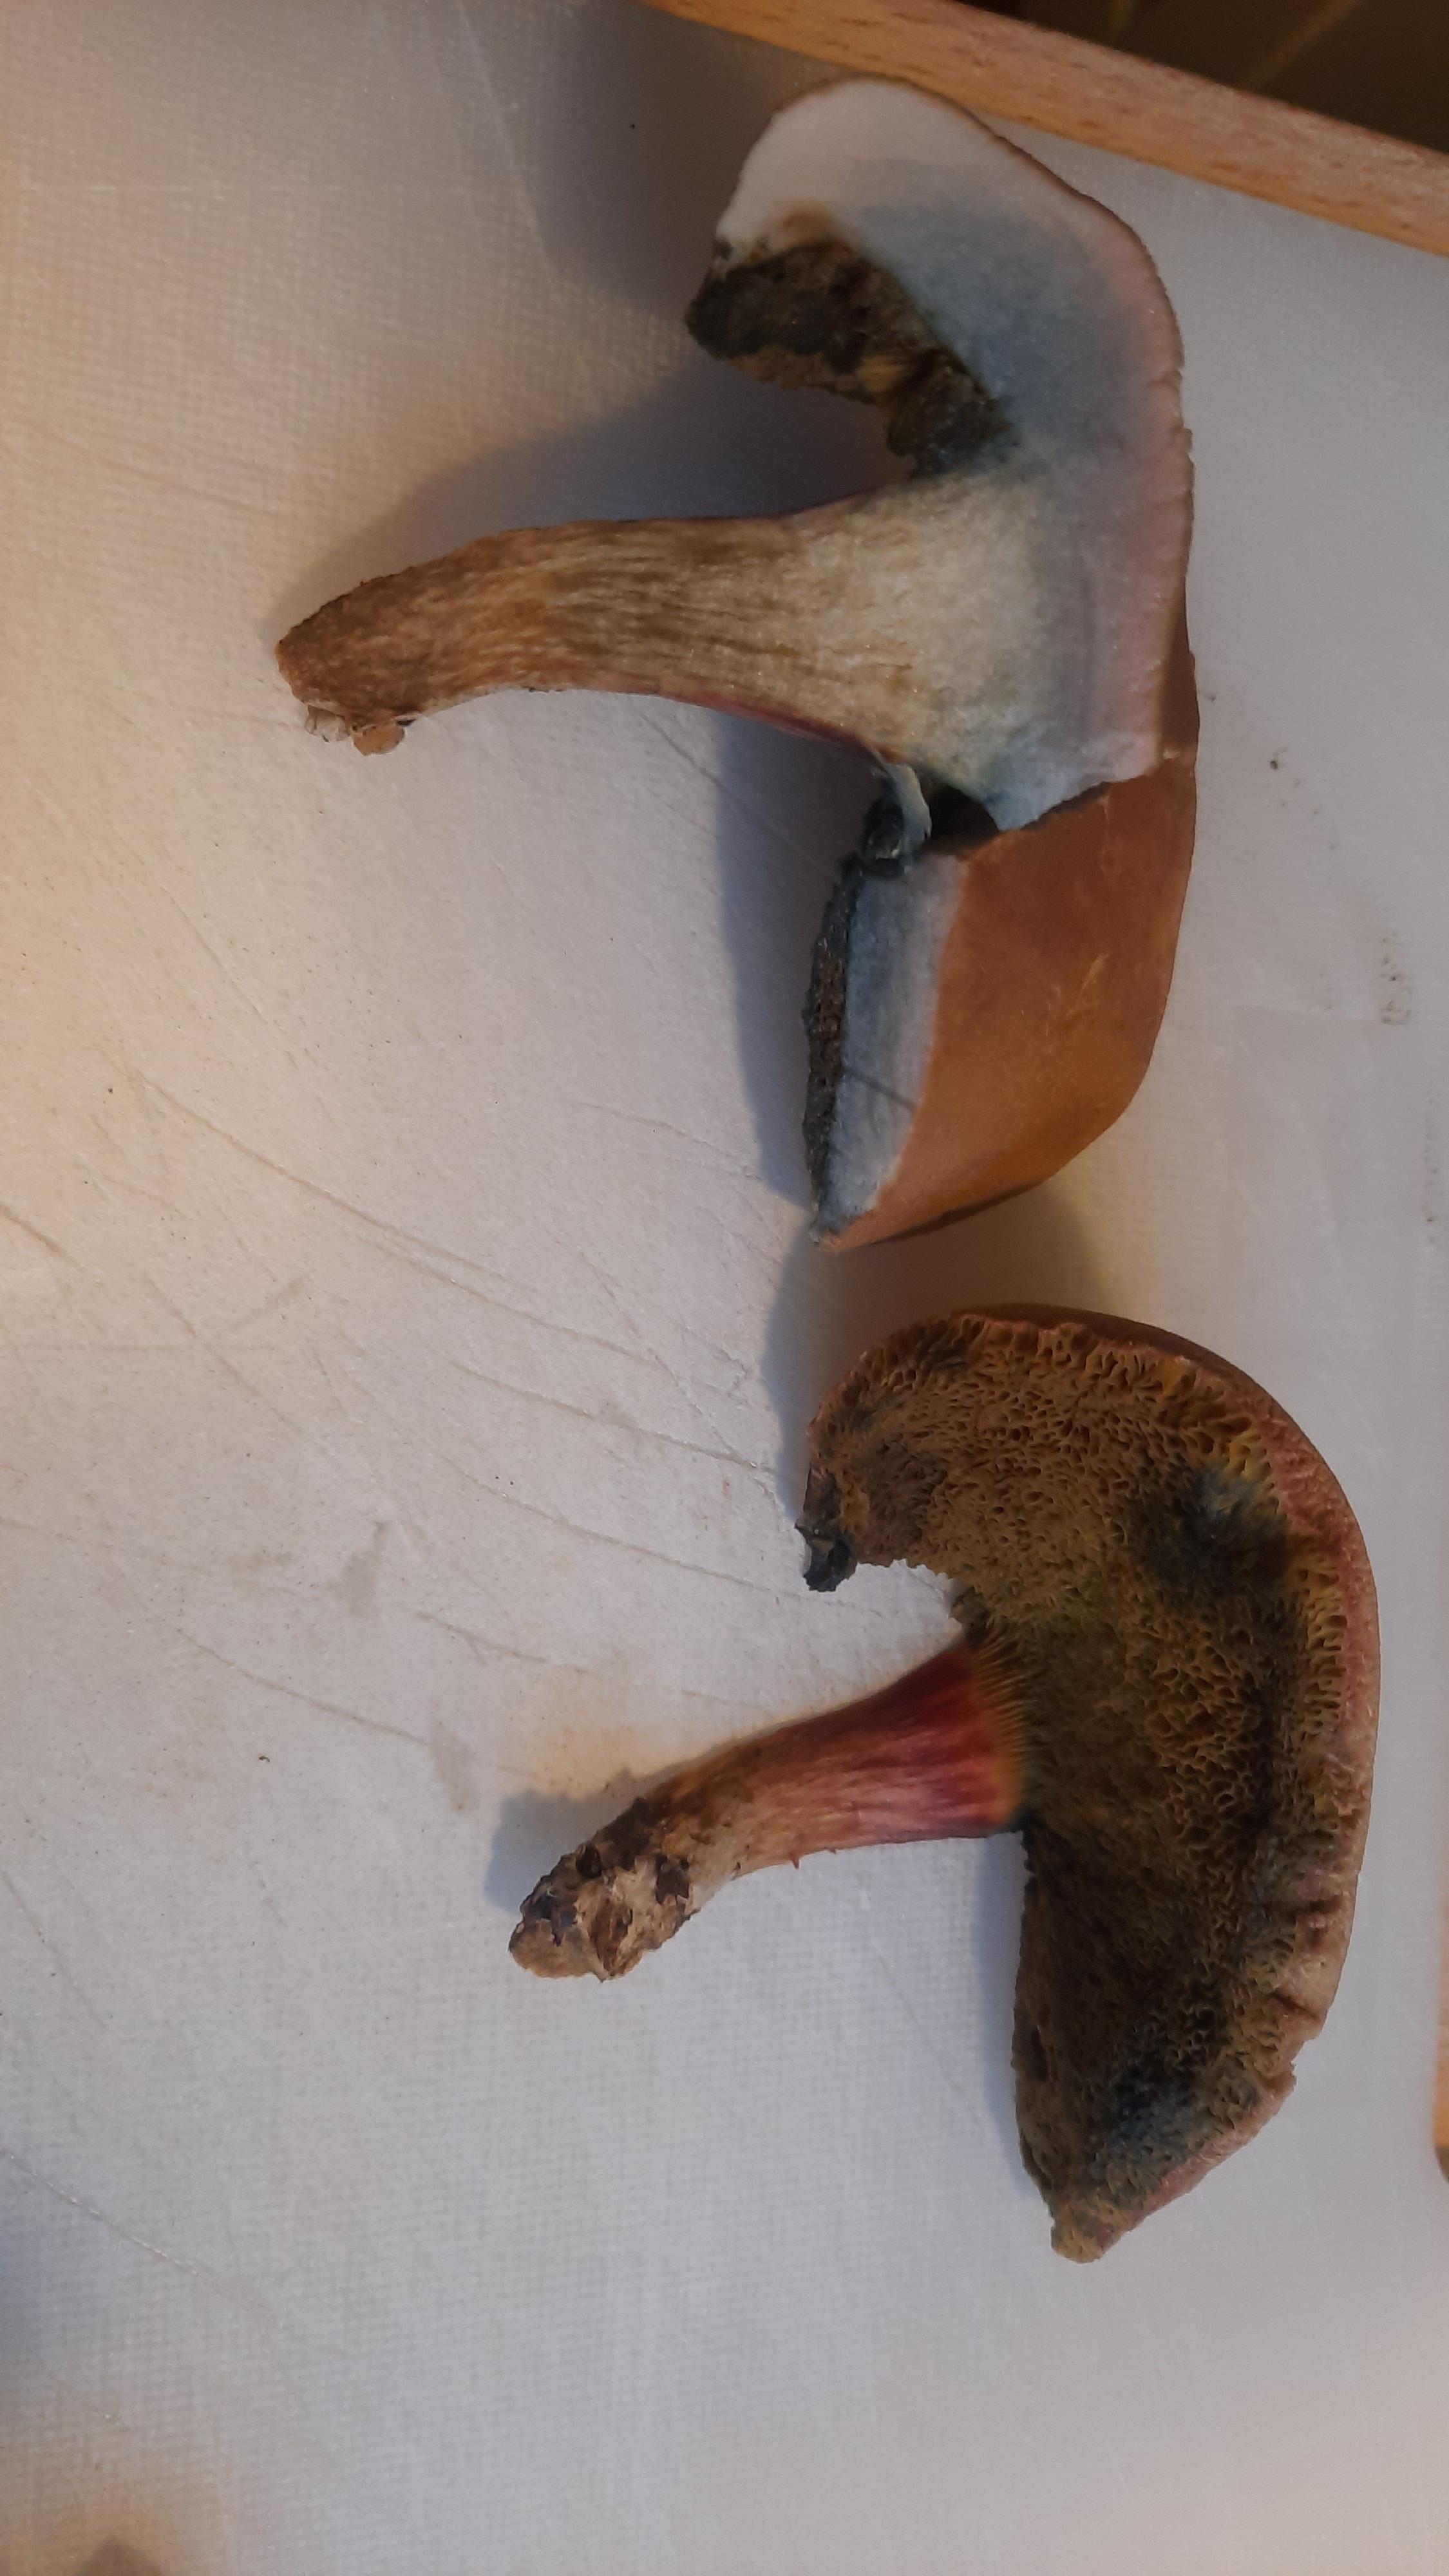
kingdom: Fungi
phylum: Basidiomycota
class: Agaricomycetes
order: Boletales
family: Boletaceae
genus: Hortiboletus
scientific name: Hortiboletus bubalinus
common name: aurora-rørhat
